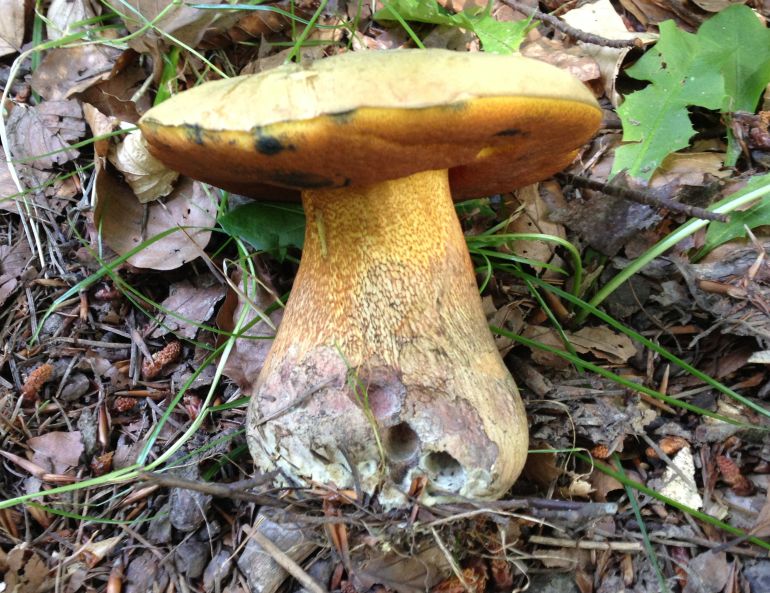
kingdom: Fungi
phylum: Basidiomycota
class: Agaricomycetes
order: Boletales
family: Boletaceae
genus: Suillellus
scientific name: Suillellus luridus
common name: netstokket indigorørhat
